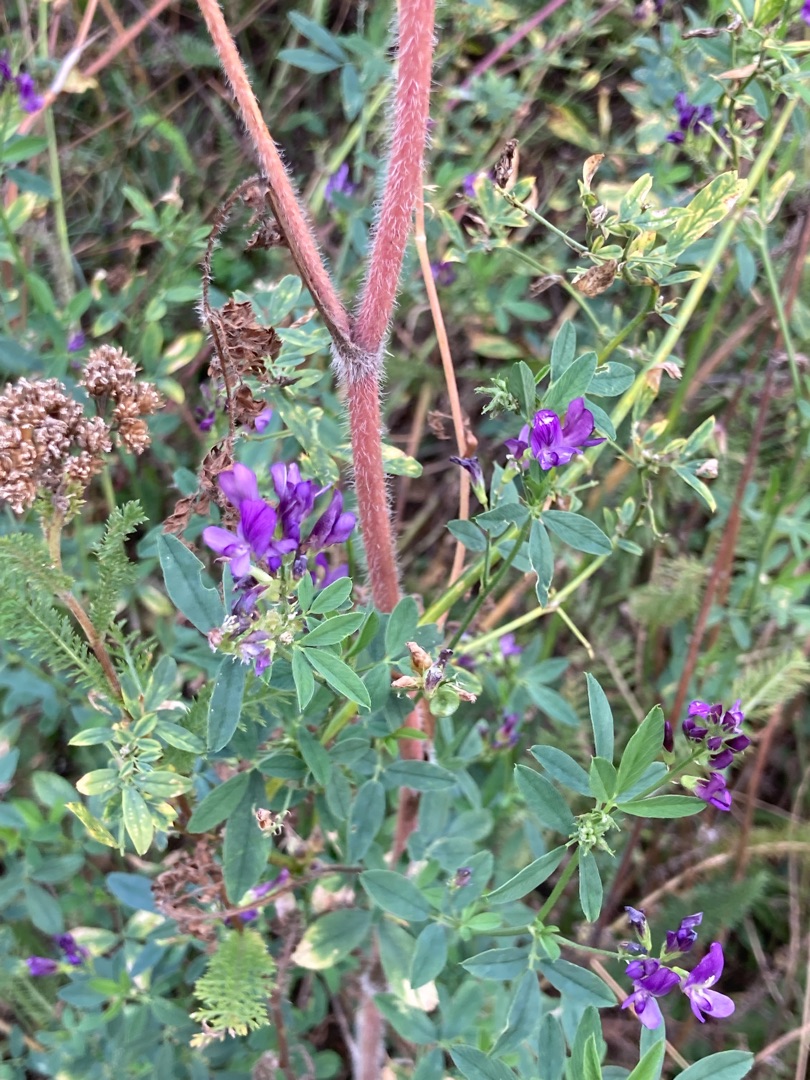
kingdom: Plantae
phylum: Tracheophyta
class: Magnoliopsida
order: Fabales
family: Fabaceae
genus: Medicago
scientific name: Medicago sativa
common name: Lucerne
